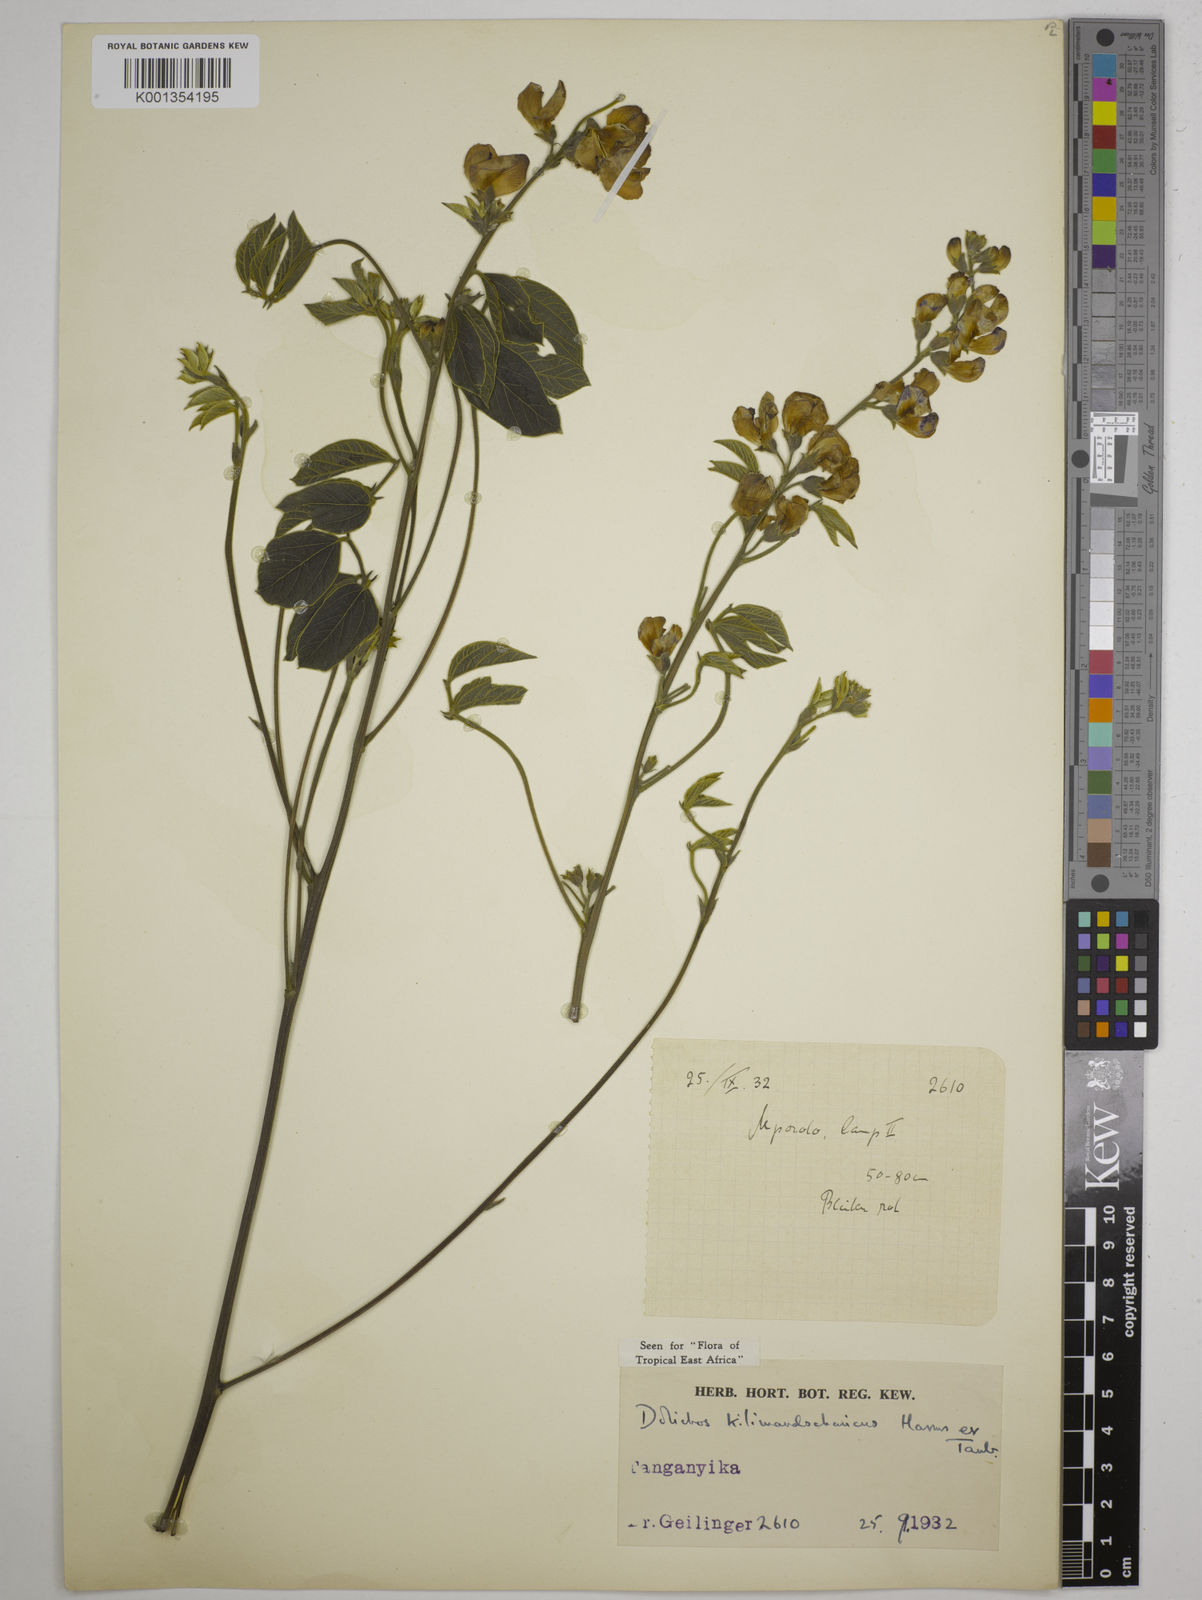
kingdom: Plantae
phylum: Tracheophyta
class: Magnoliopsida
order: Fabales
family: Fabaceae
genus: Dolichos
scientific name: Dolichos kilimandscharicus
